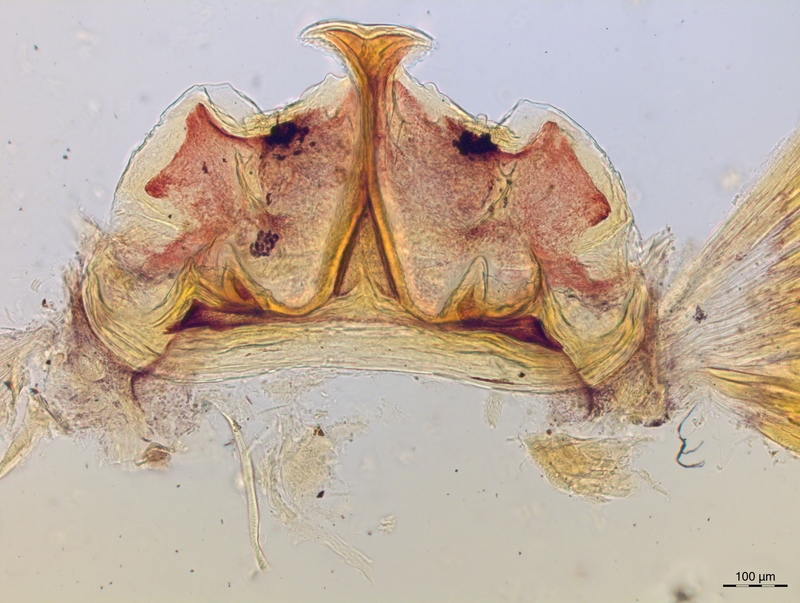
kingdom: Animalia
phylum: Arthropoda
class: Diplopoda
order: Chordeumatida
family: Craspedosomatidae
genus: Craspedosoma
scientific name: Craspedosoma slavum
